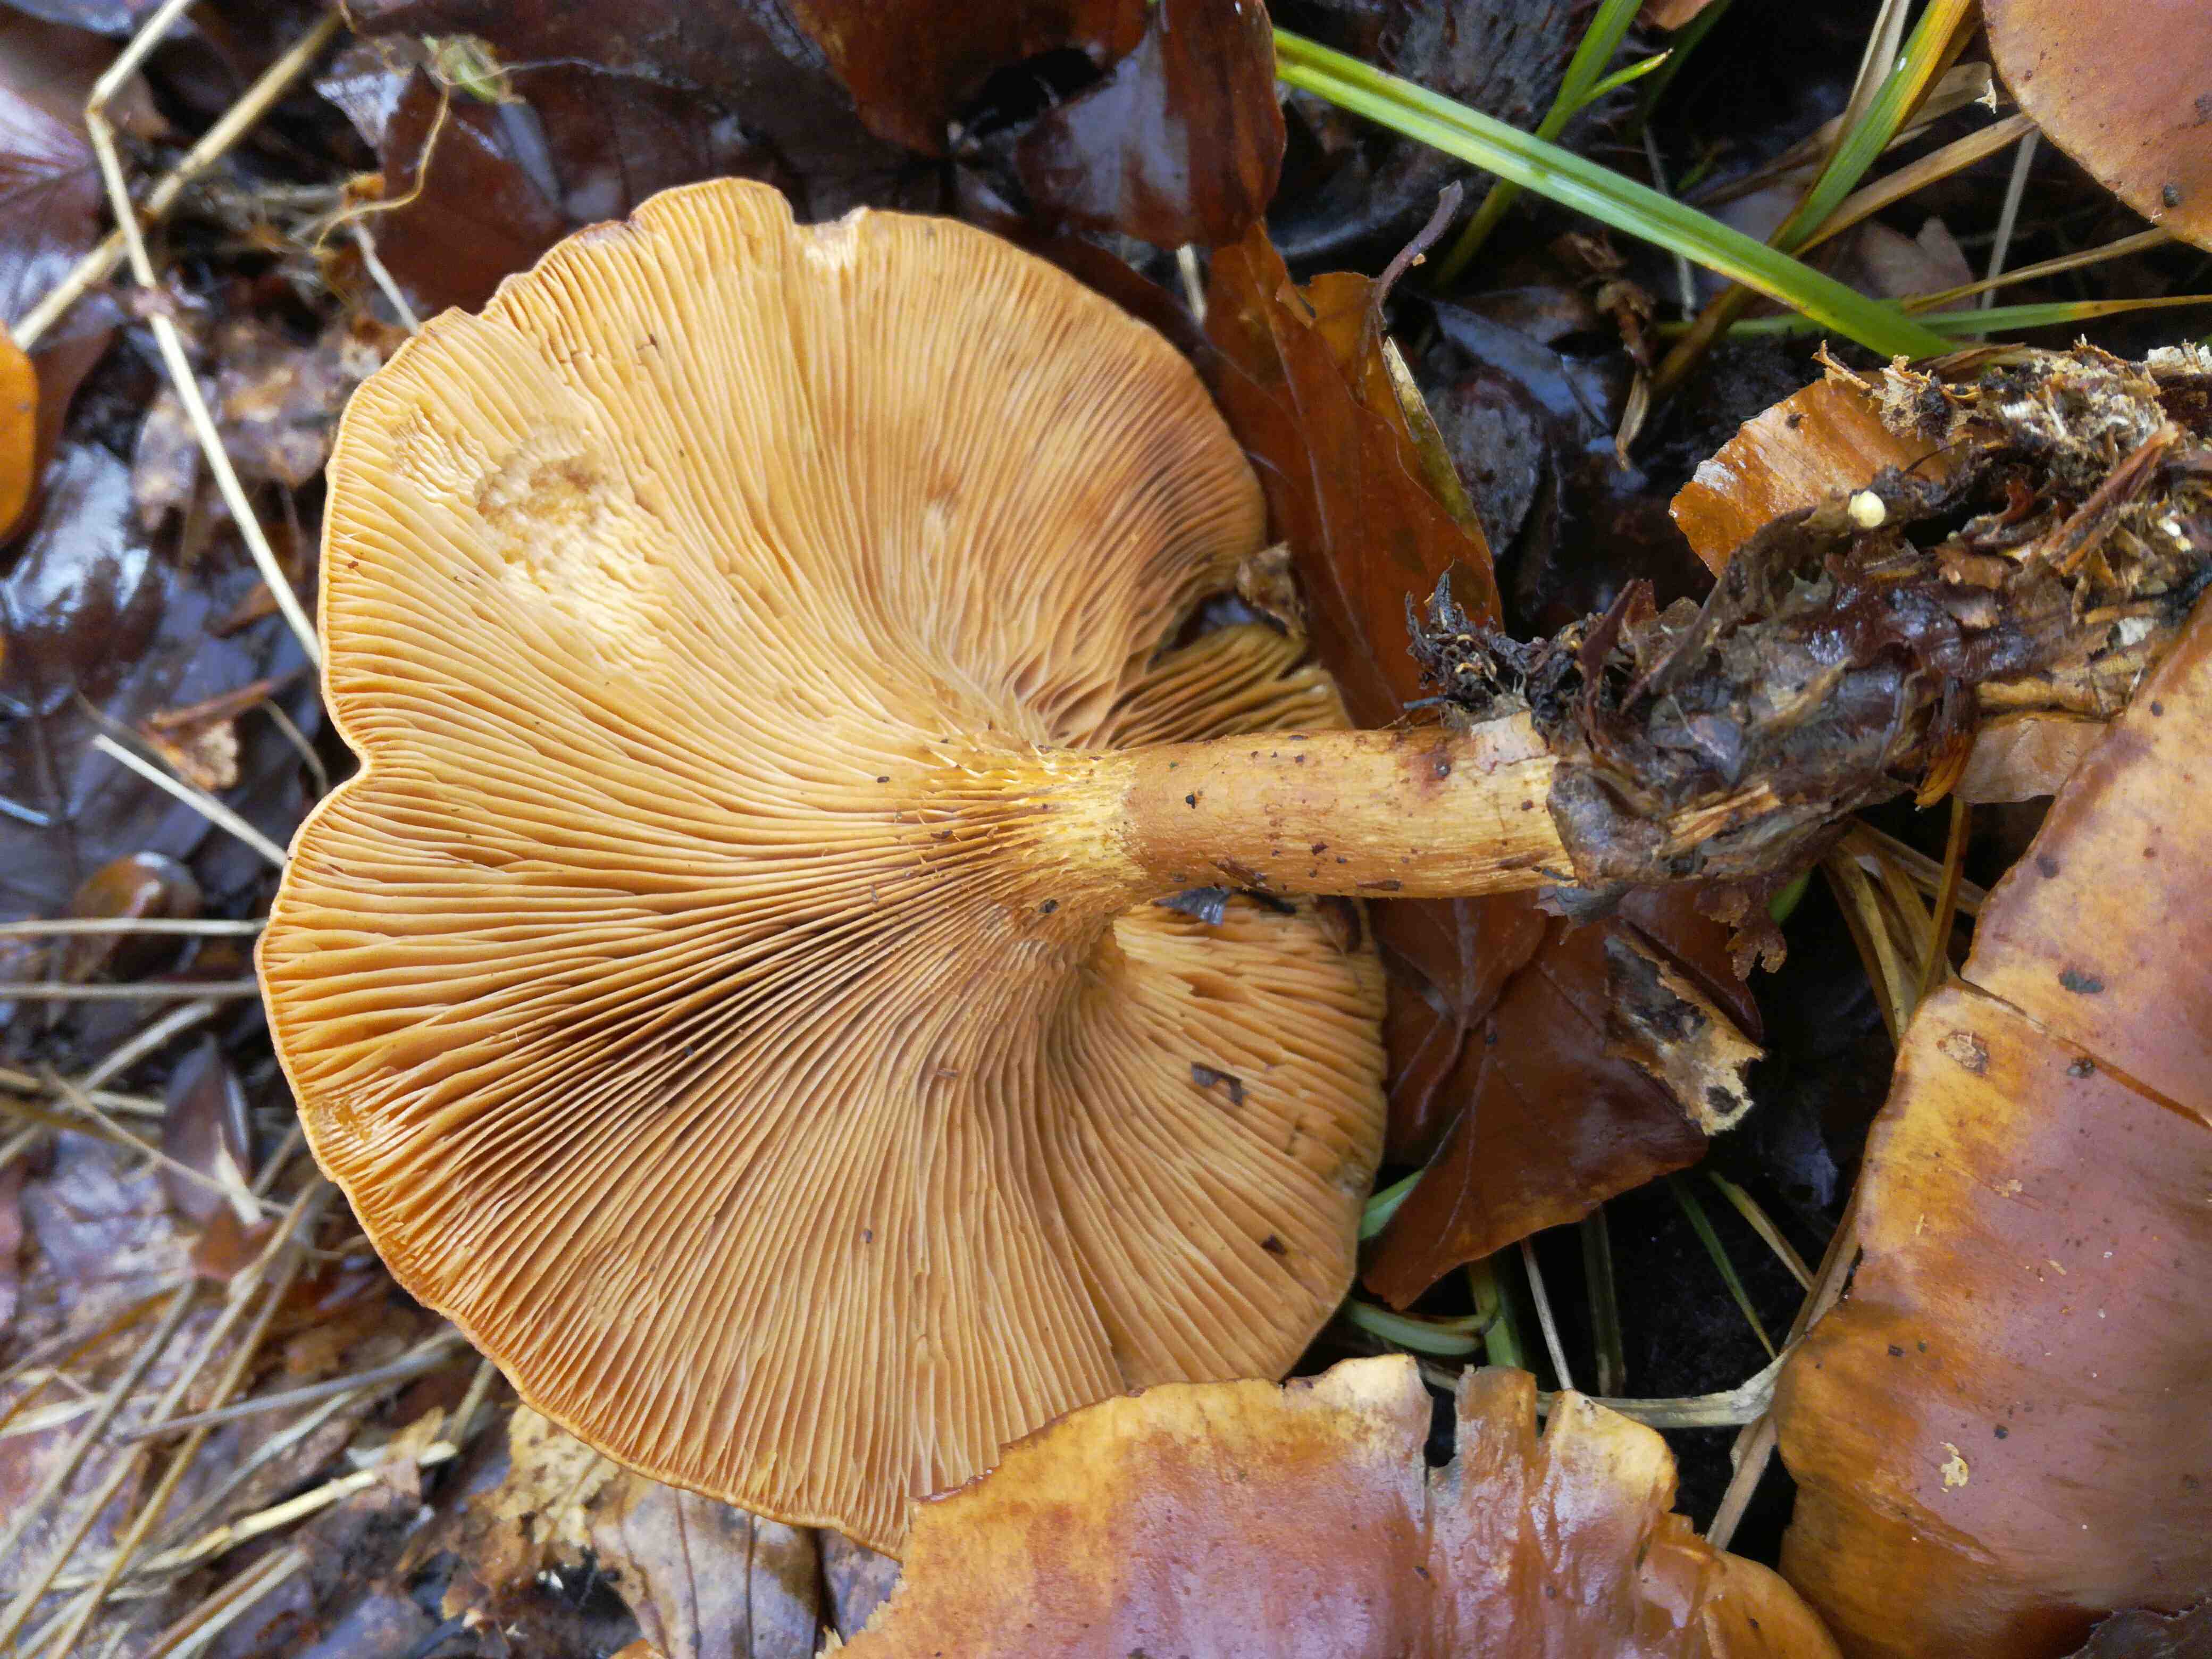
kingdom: Fungi
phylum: Basidiomycota
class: Agaricomycetes
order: Agaricales
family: Tricholomataceae
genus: Paralepista
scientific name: Paralepista
